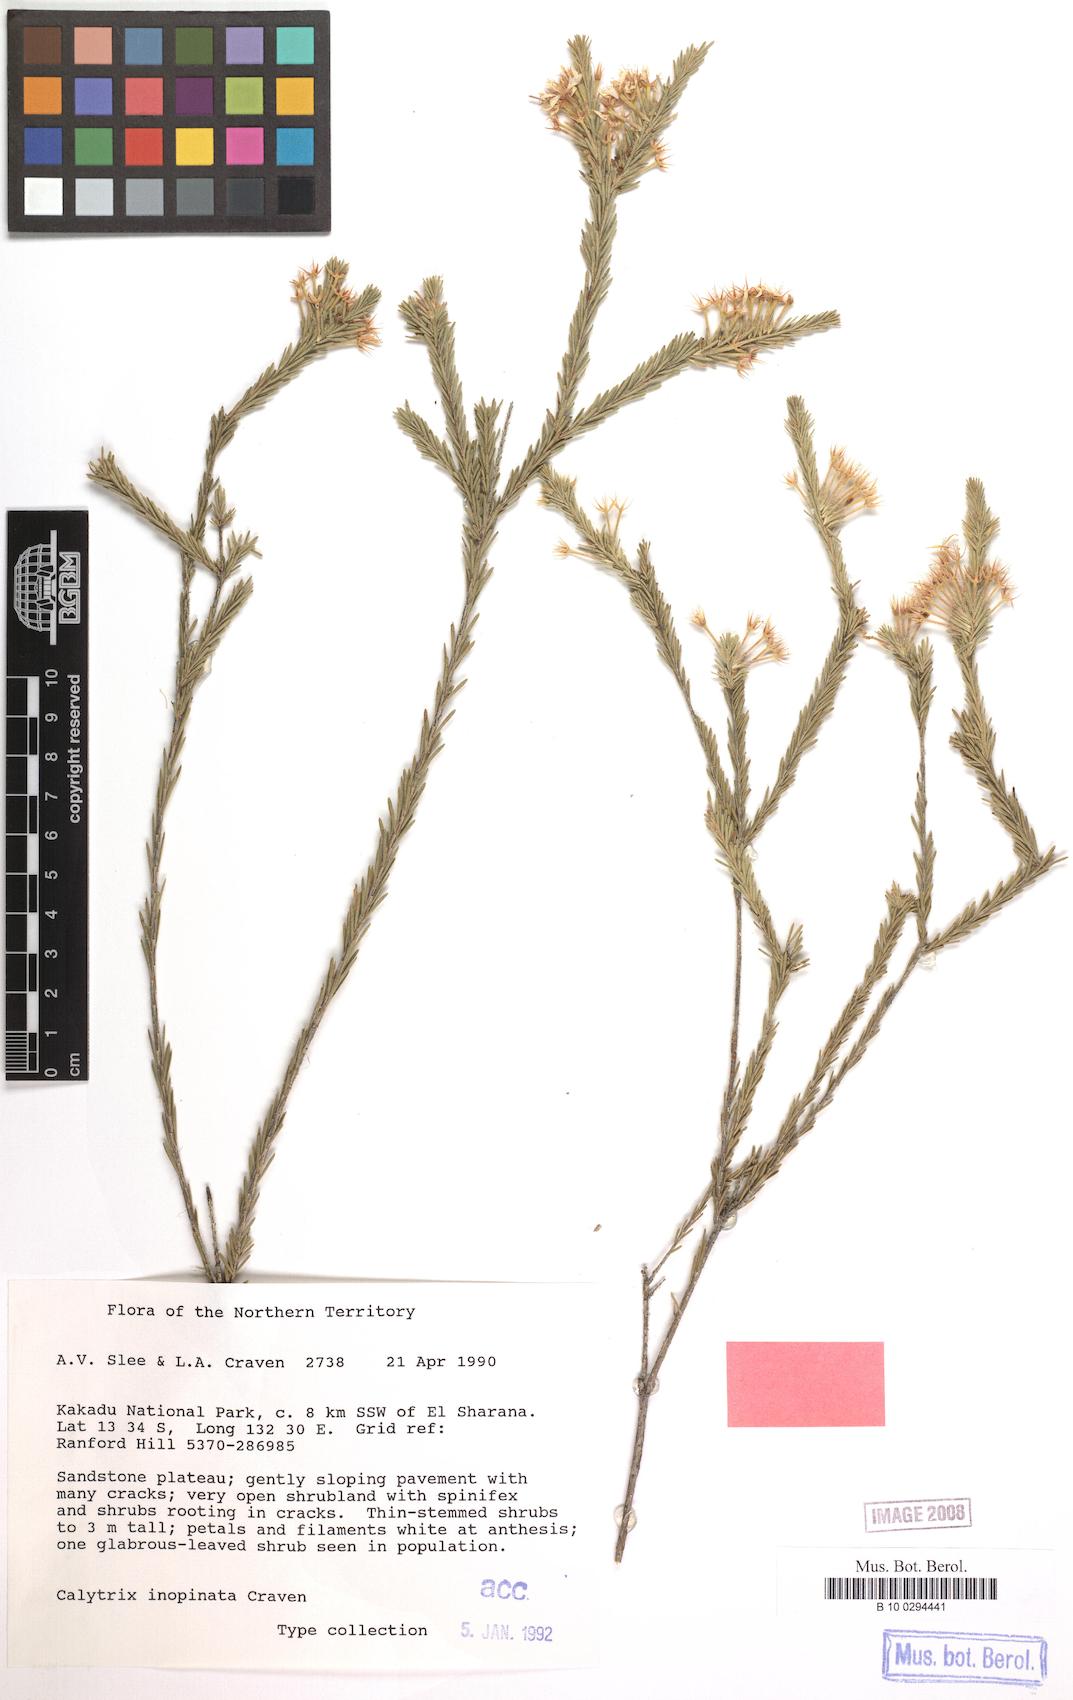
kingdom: Plantae
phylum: Tracheophyta
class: Magnoliopsida
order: Myrtales
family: Myrtaceae
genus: Calytrix
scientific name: Calytrix inopinata
